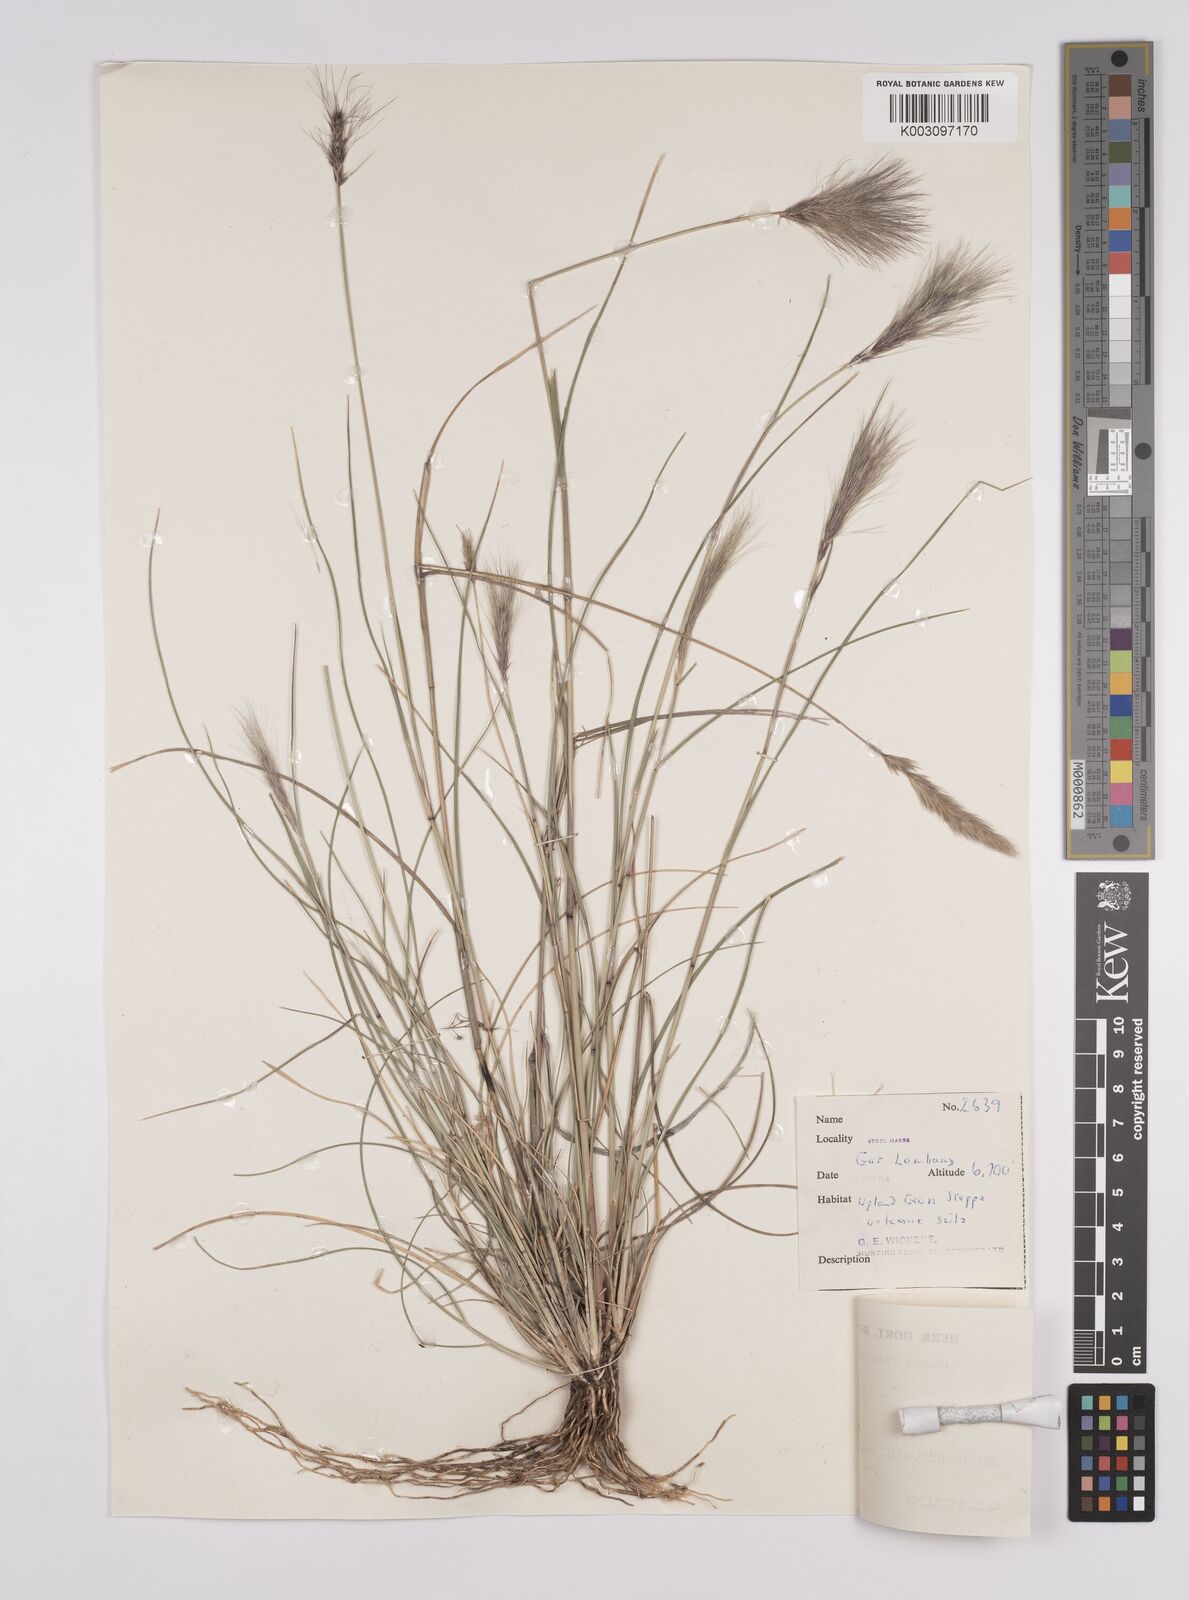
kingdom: Plantae
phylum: Tracheophyta
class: Liliopsida
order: Poales
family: Poaceae
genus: Aristida
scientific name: Aristida congesta
